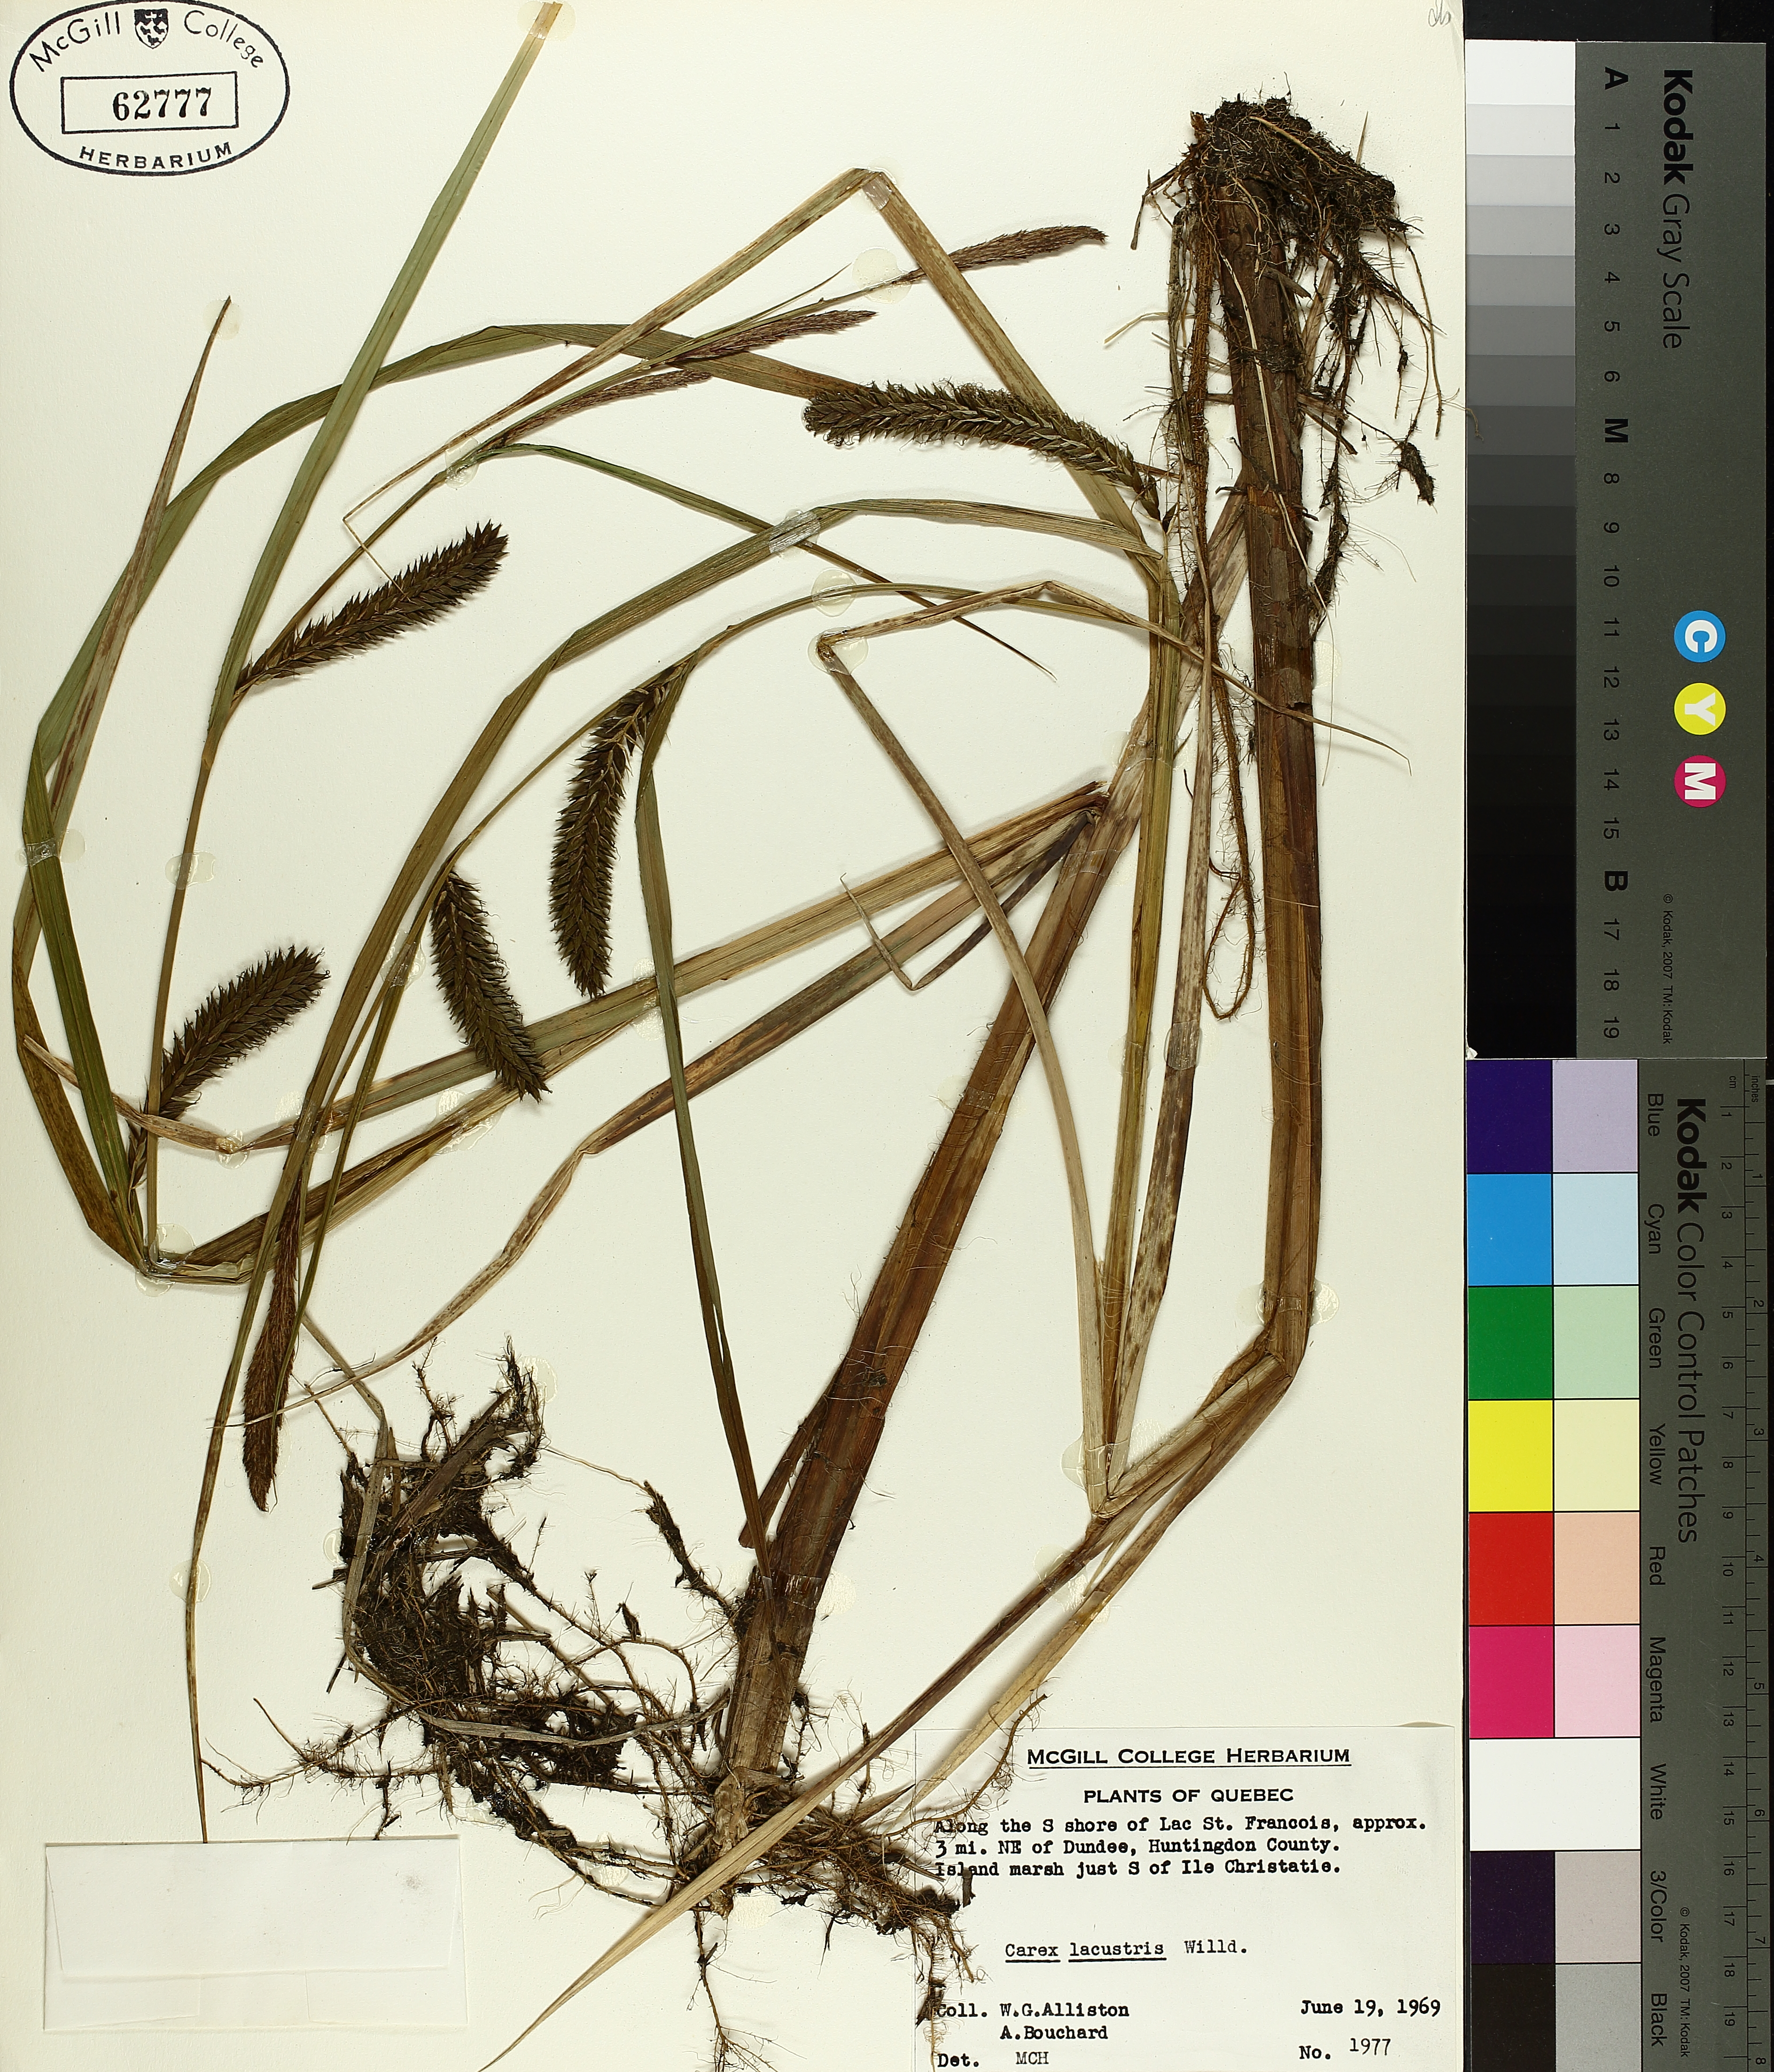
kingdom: Plantae
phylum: Tracheophyta
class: Liliopsida
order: Poales
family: Cyperaceae
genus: Carex
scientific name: Carex lacustris
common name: Common lake sedge
